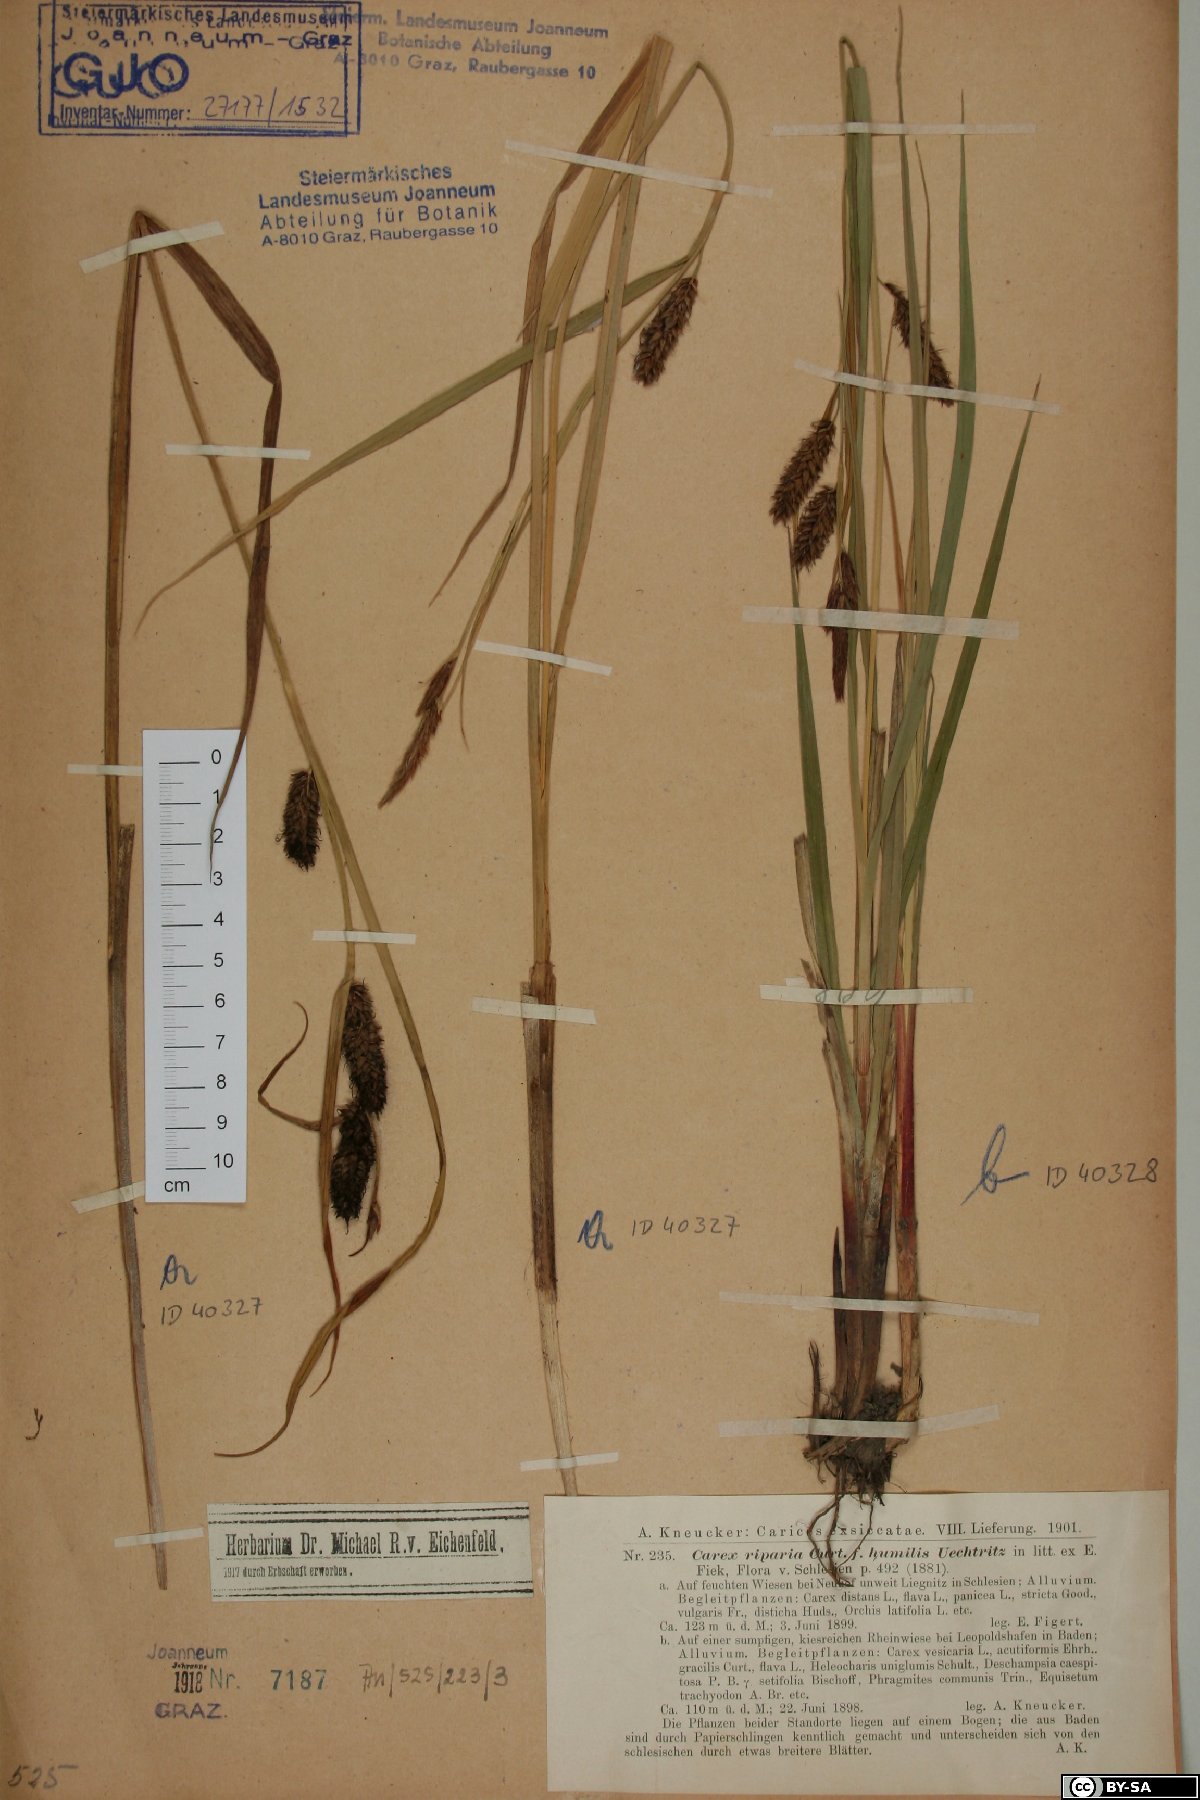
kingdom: Plantae
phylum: Tracheophyta
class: Liliopsida
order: Poales
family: Cyperaceae
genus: Carex
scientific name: Carex riparia
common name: Greater pond-sedge
